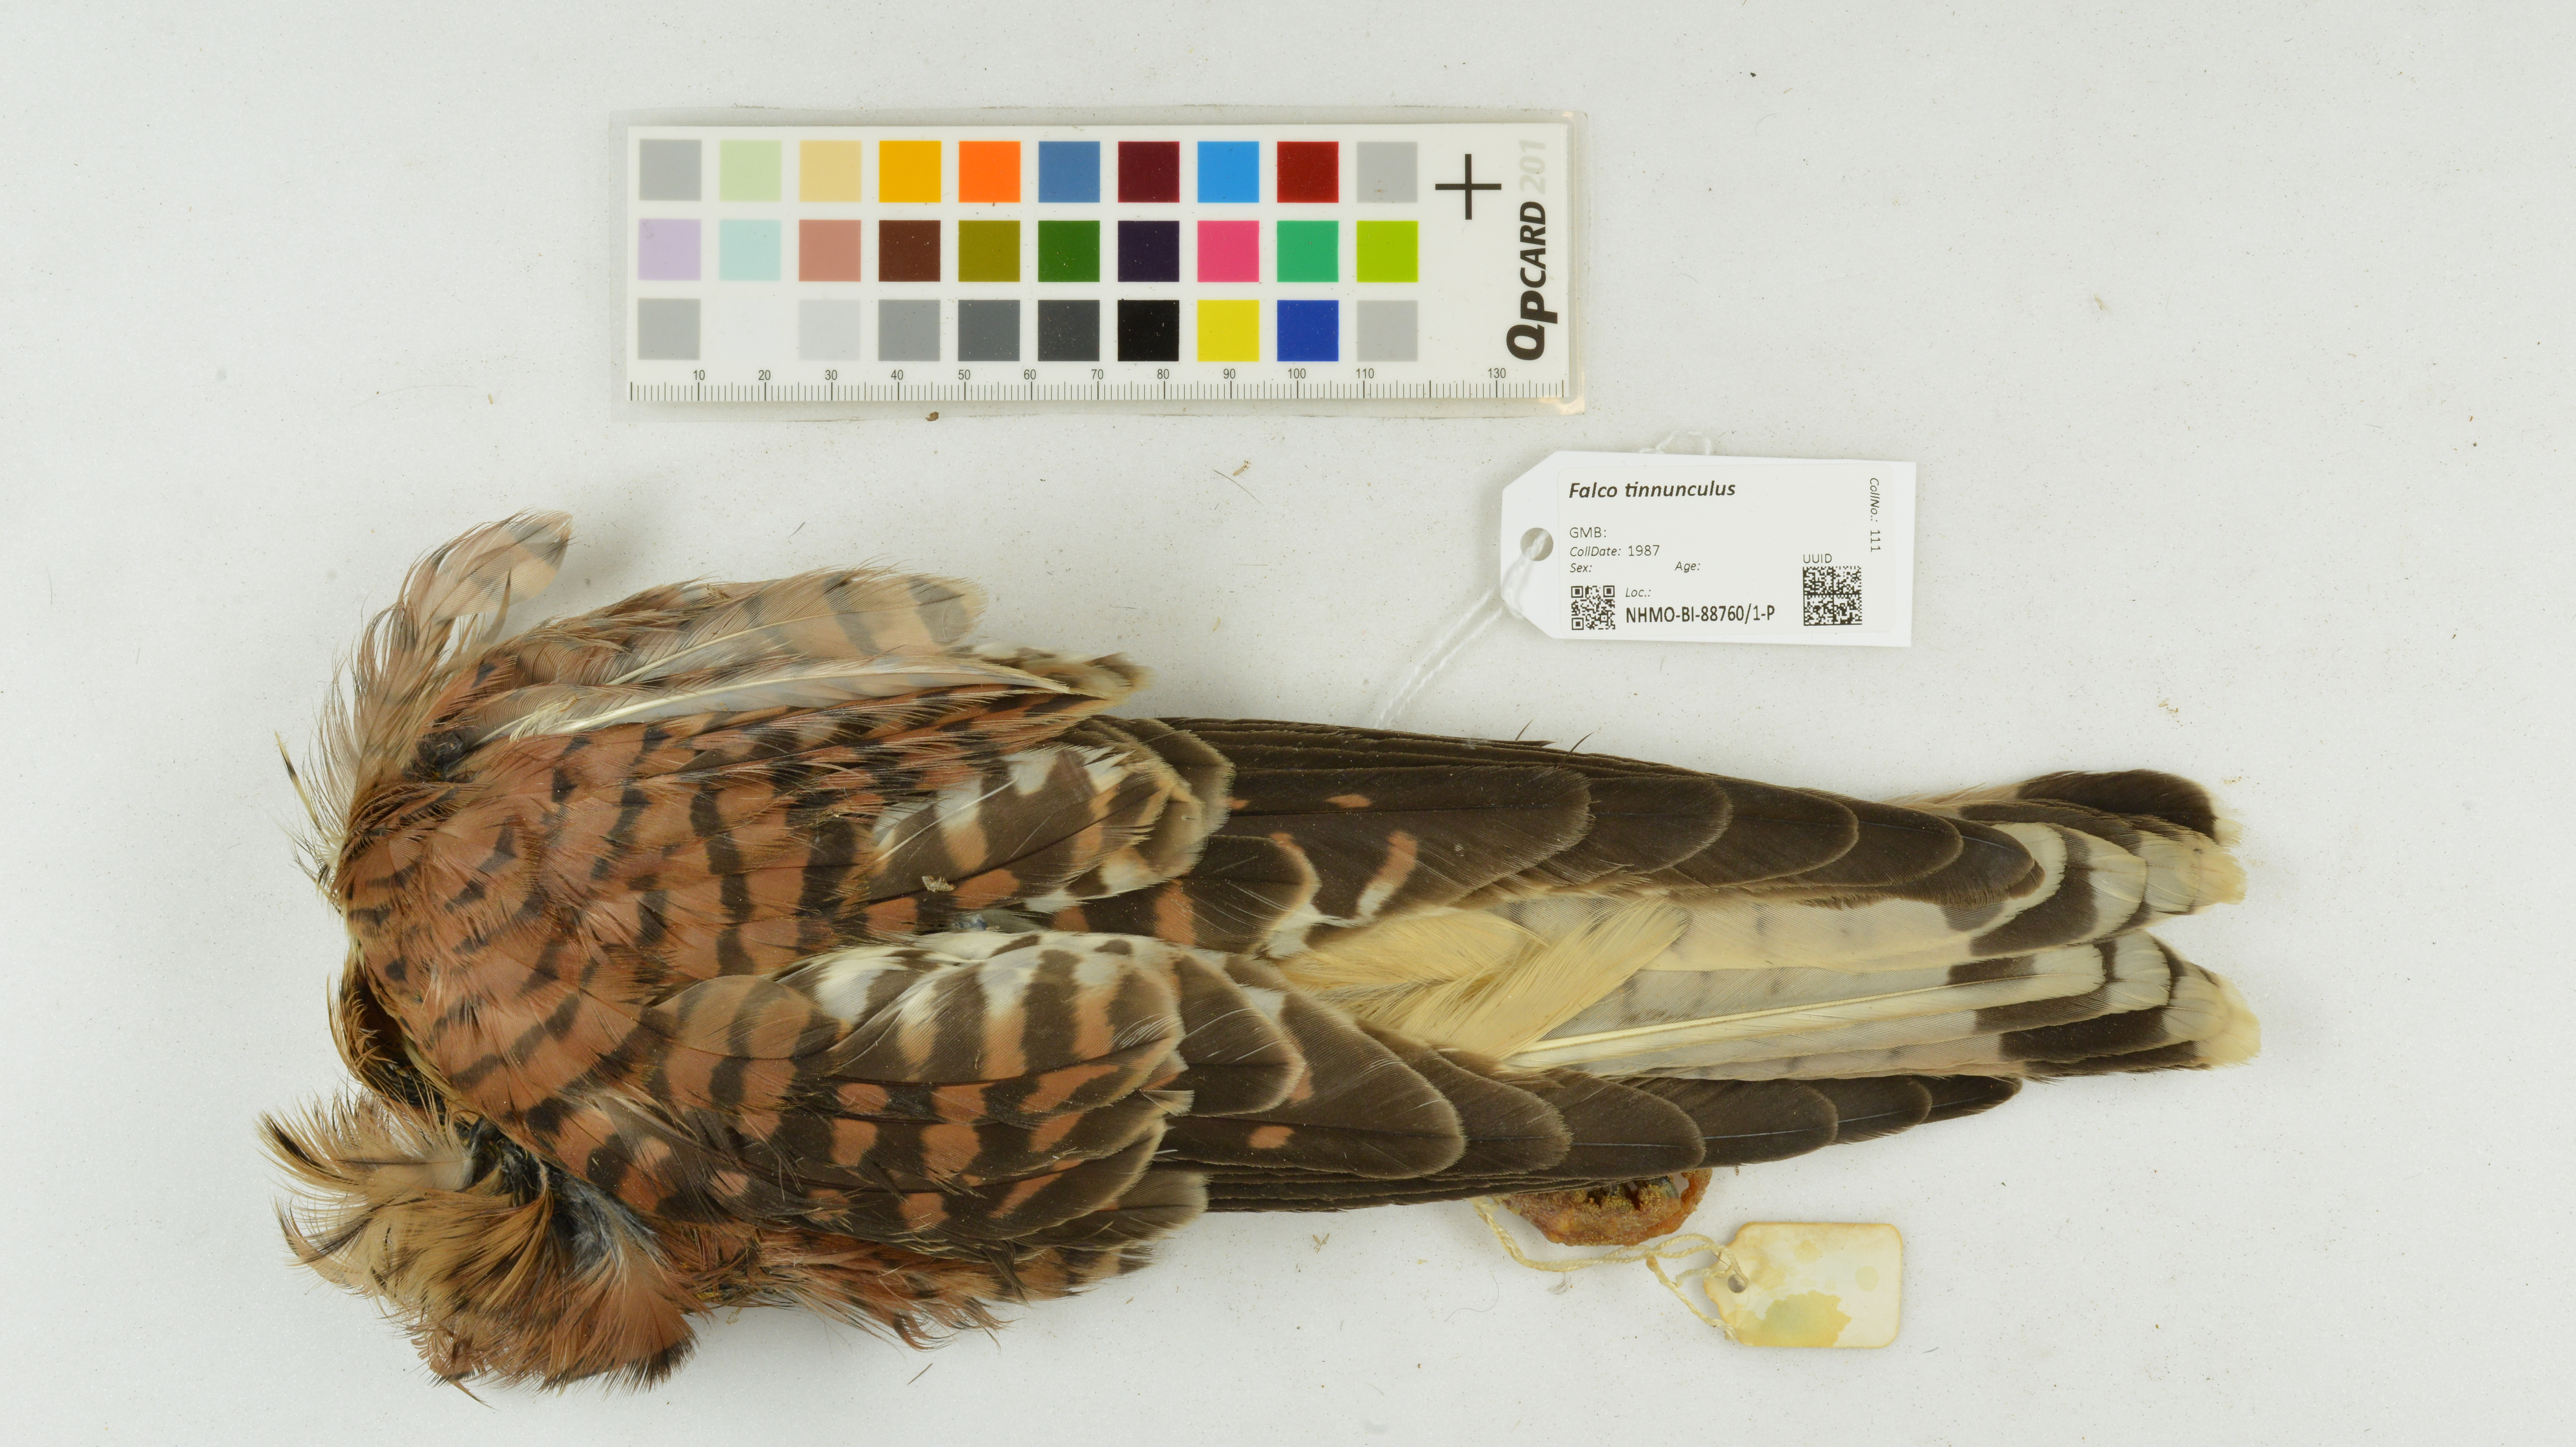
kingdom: Animalia
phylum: Chordata
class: Aves
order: Falconiformes
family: Falconidae
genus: Falco
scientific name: Falco tinnunculus
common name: Common kestrel
